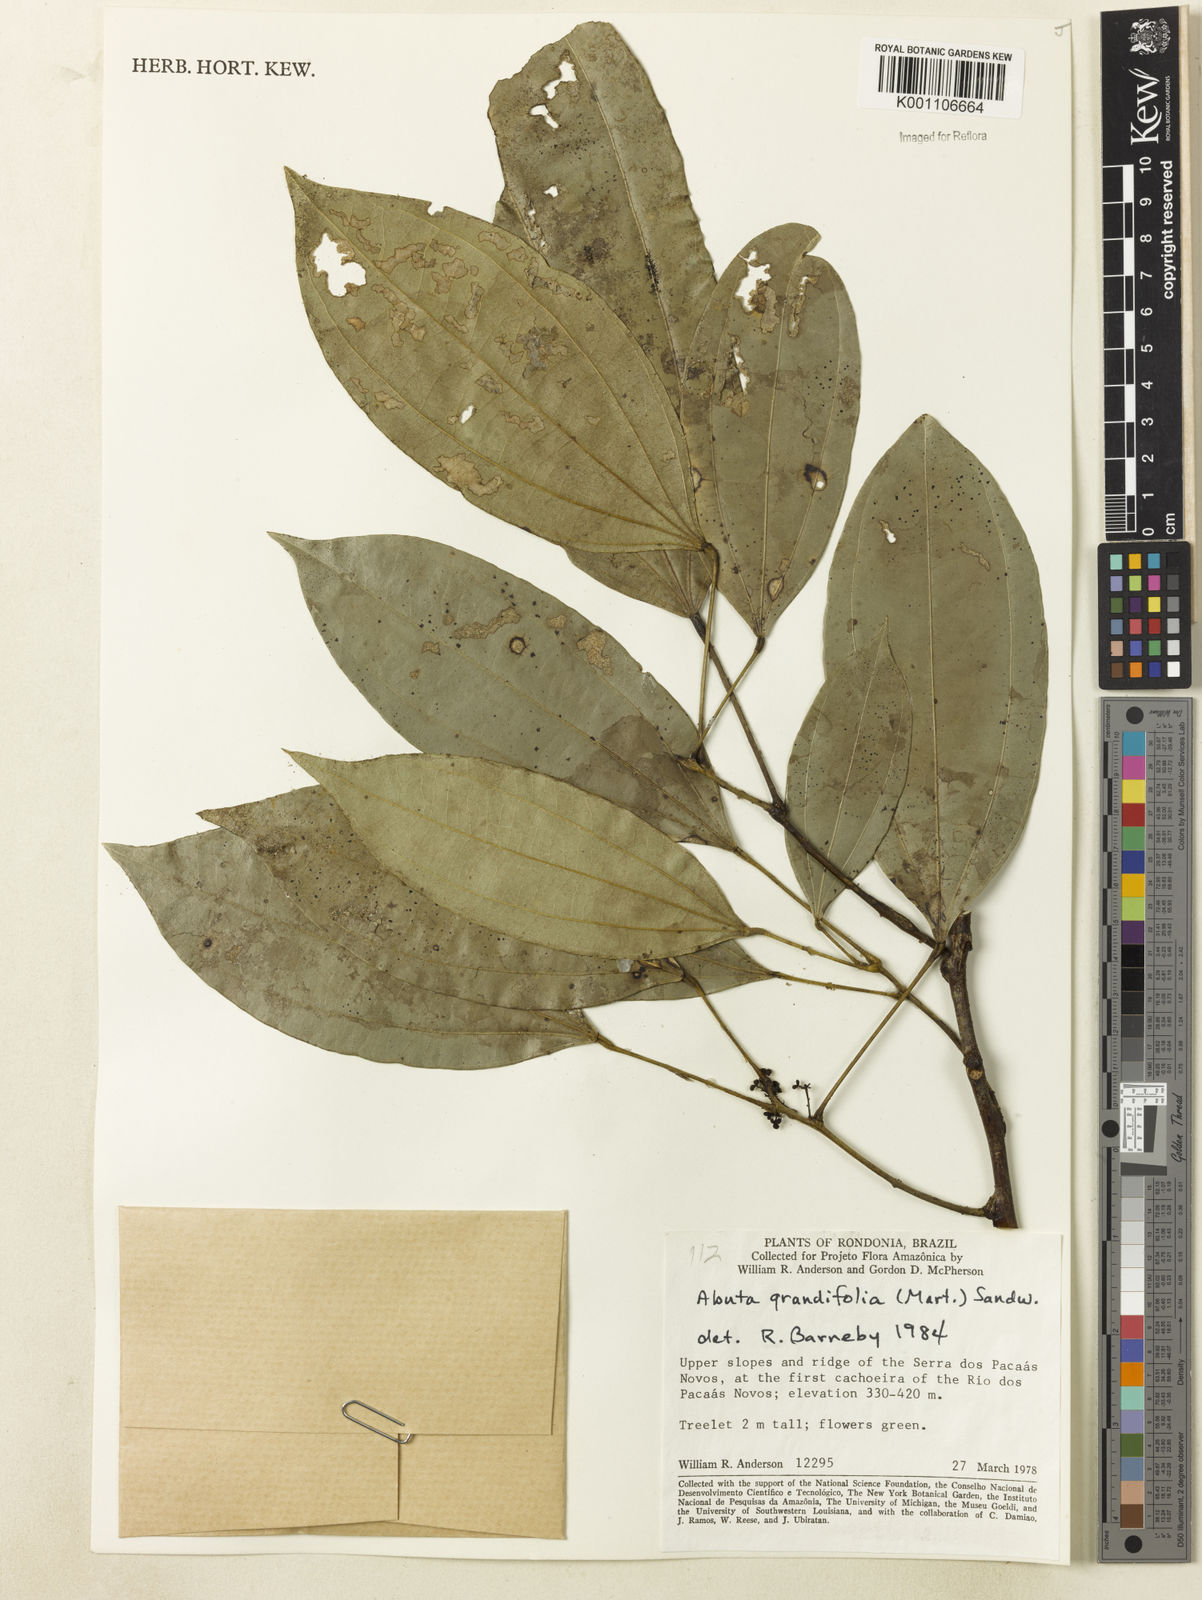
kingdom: Plantae
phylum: Tracheophyta
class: Magnoliopsida
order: Ranunculales
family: Menispermaceae
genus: Abuta
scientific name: Abuta grandifolia
